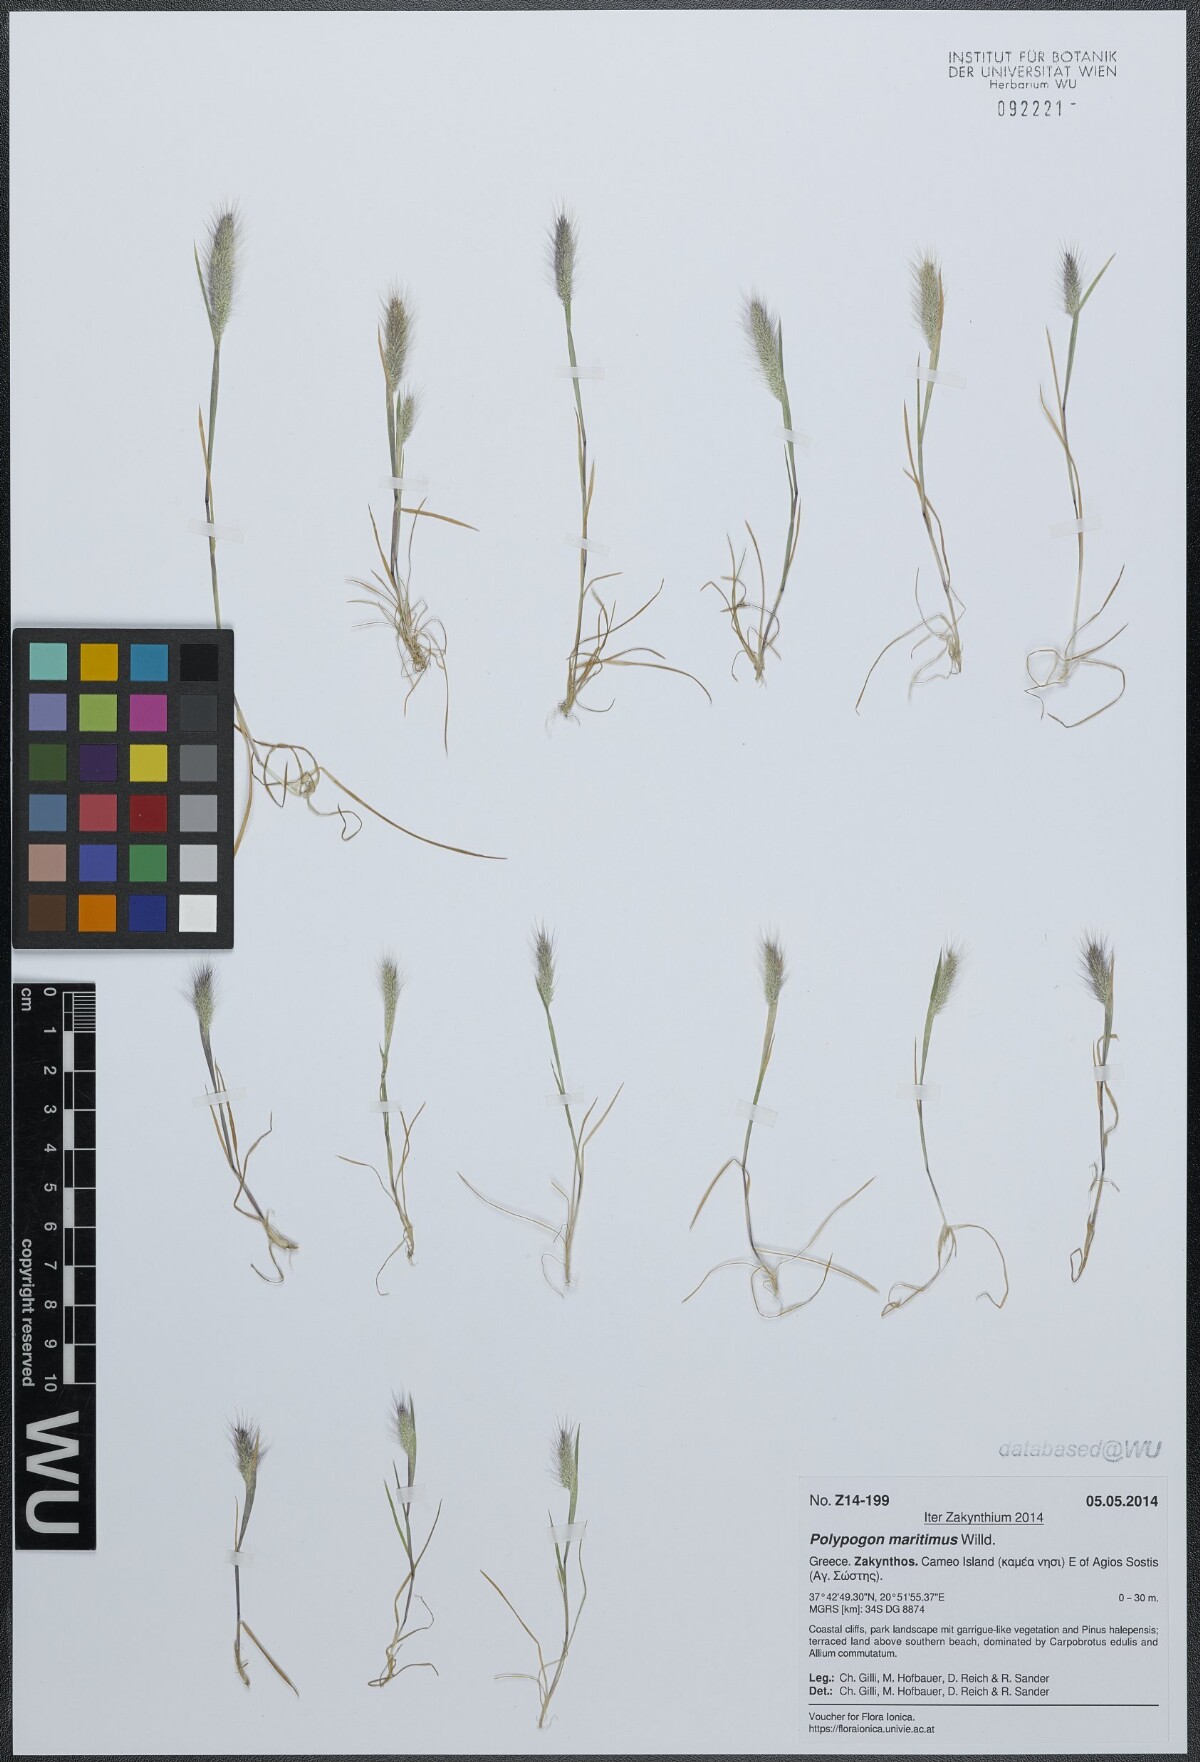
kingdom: Plantae
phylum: Tracheophyta
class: Liliopsida
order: Poales
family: Poaceae
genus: Polypogon
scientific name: Polypogon maritimus
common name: Mediterranean rabbitsfoot grass
